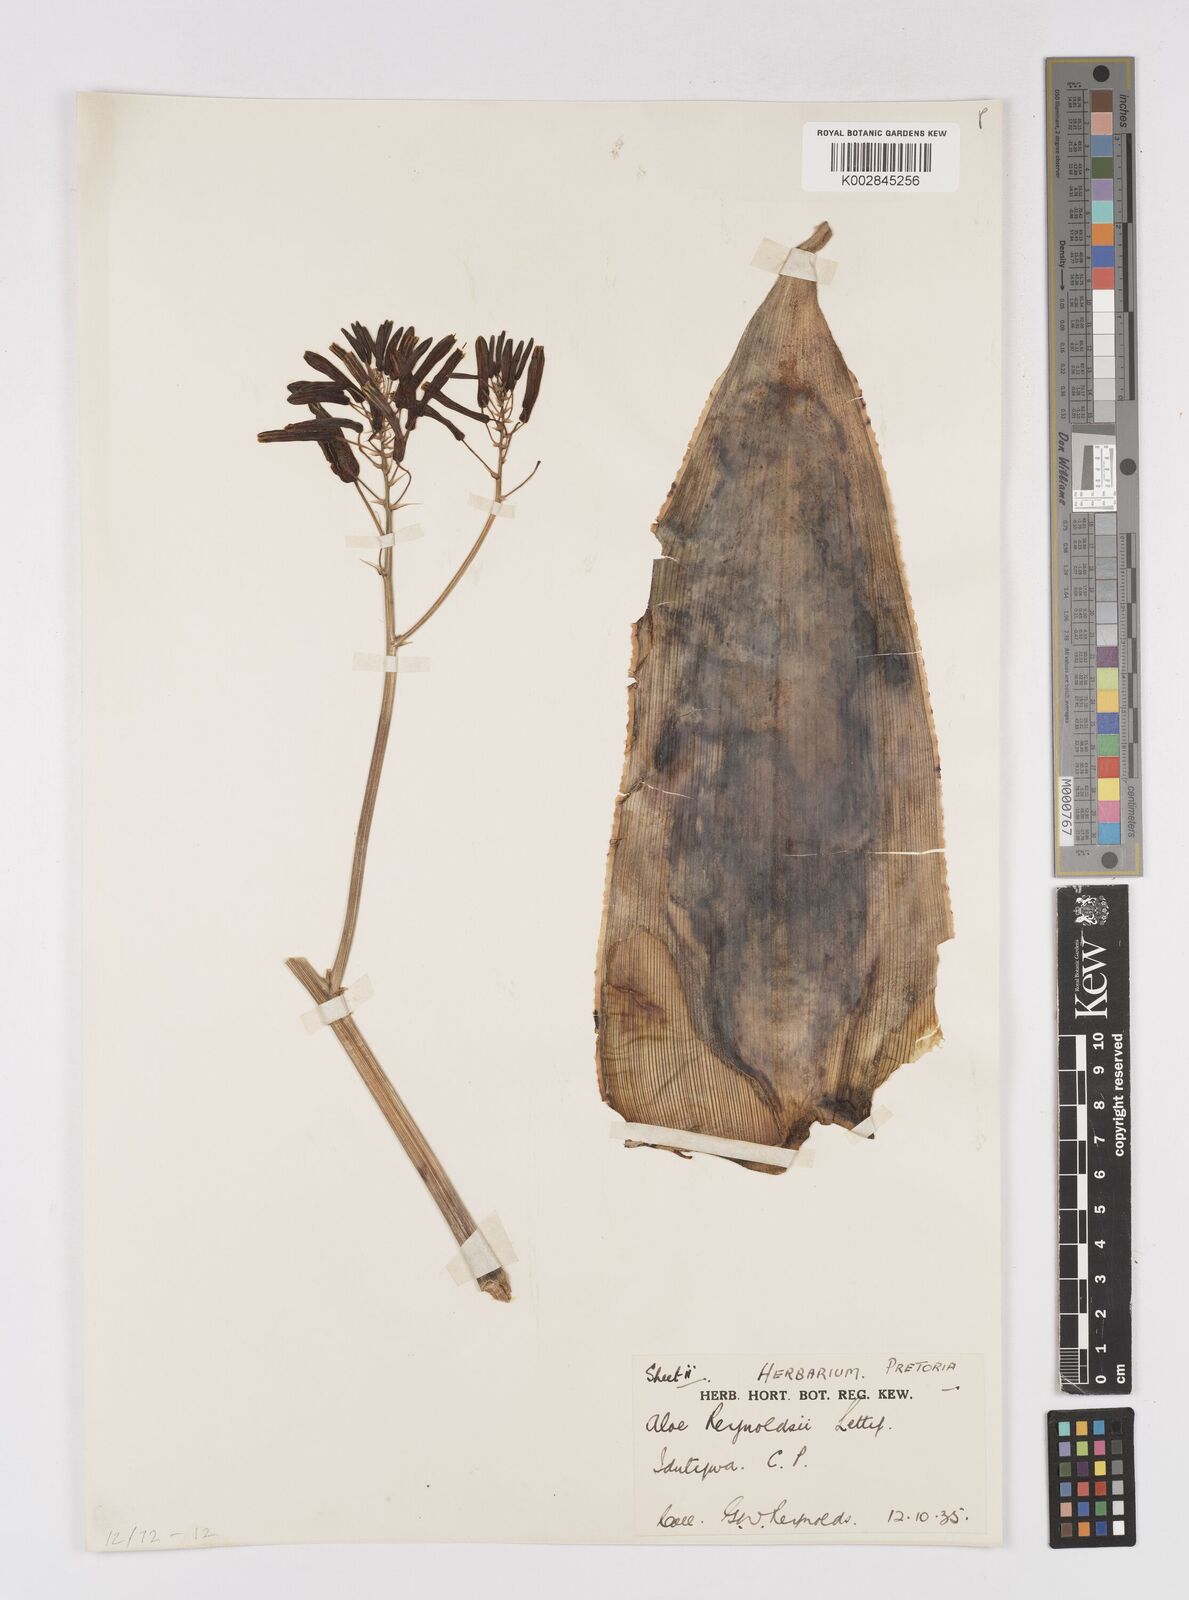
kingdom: Plantae
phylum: Tracheophyta
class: Liliopsida
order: Asparagales
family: Asphodelaceae
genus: Aloe
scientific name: Aloe reynoldsii
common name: Yellow spineless aloe
